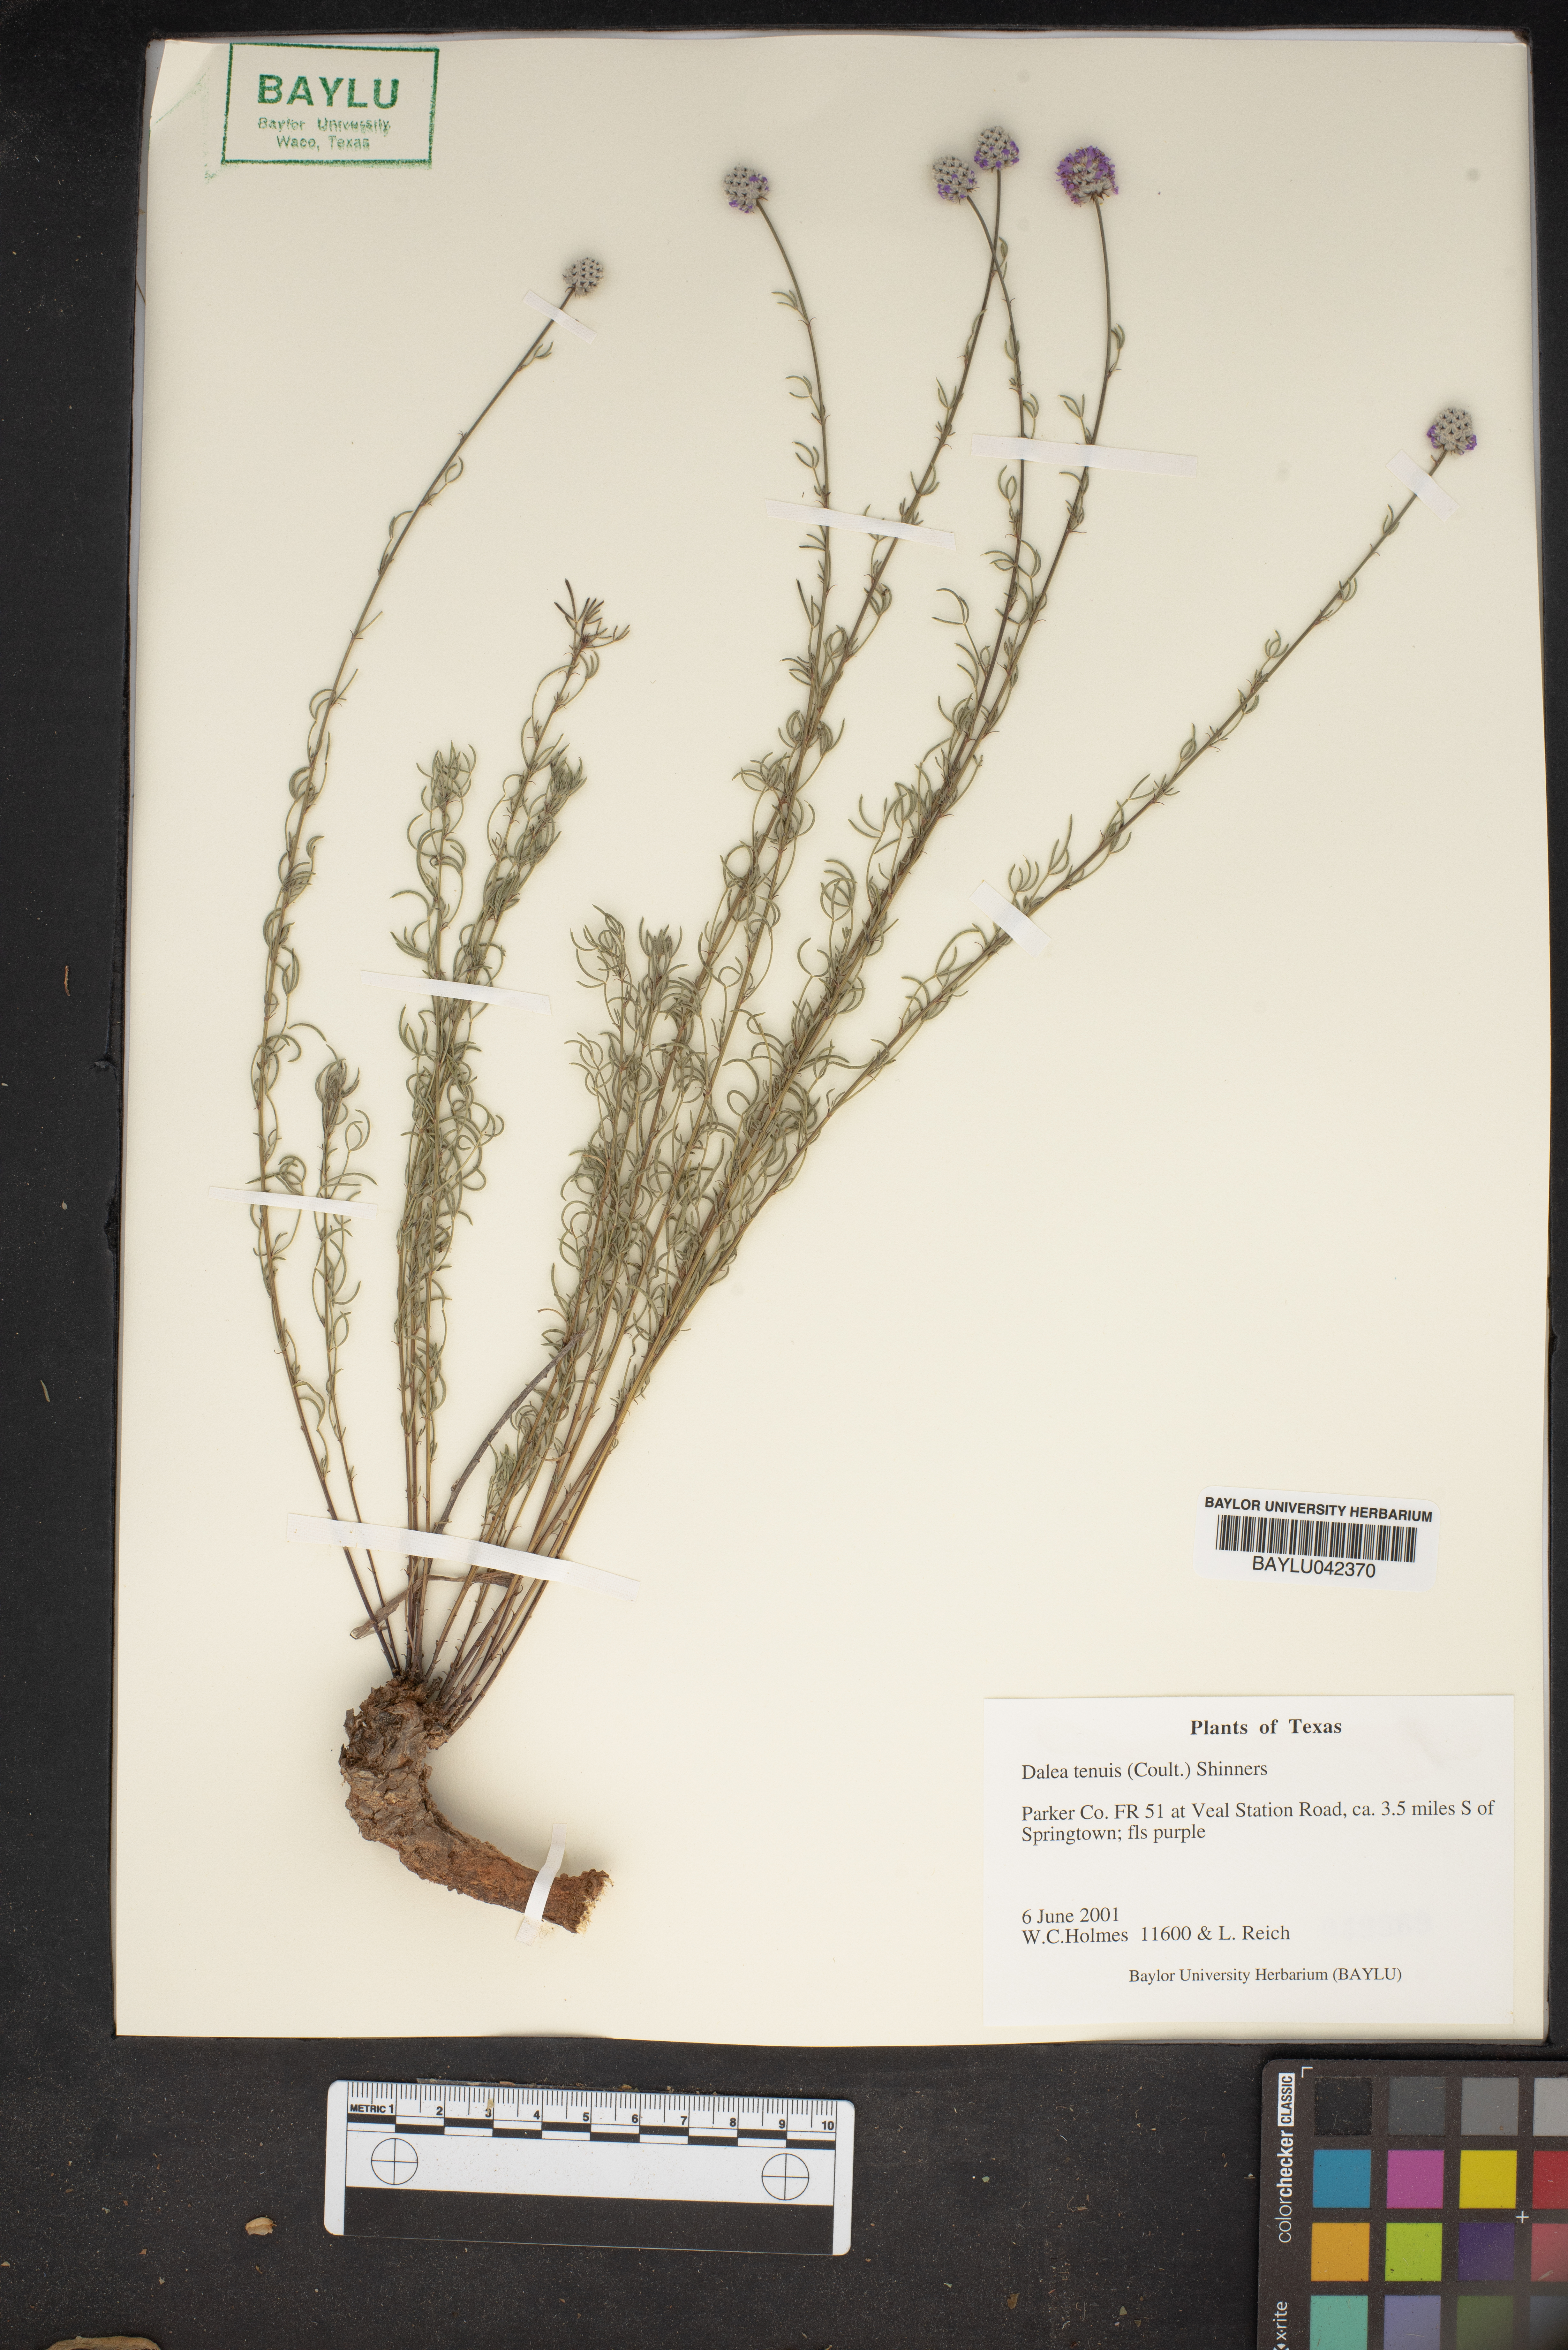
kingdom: Plantae
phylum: Tracheophyta
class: Magnoliopsida
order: Fabales
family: Fabaceae
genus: Dalea
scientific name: Dalea tenuis
